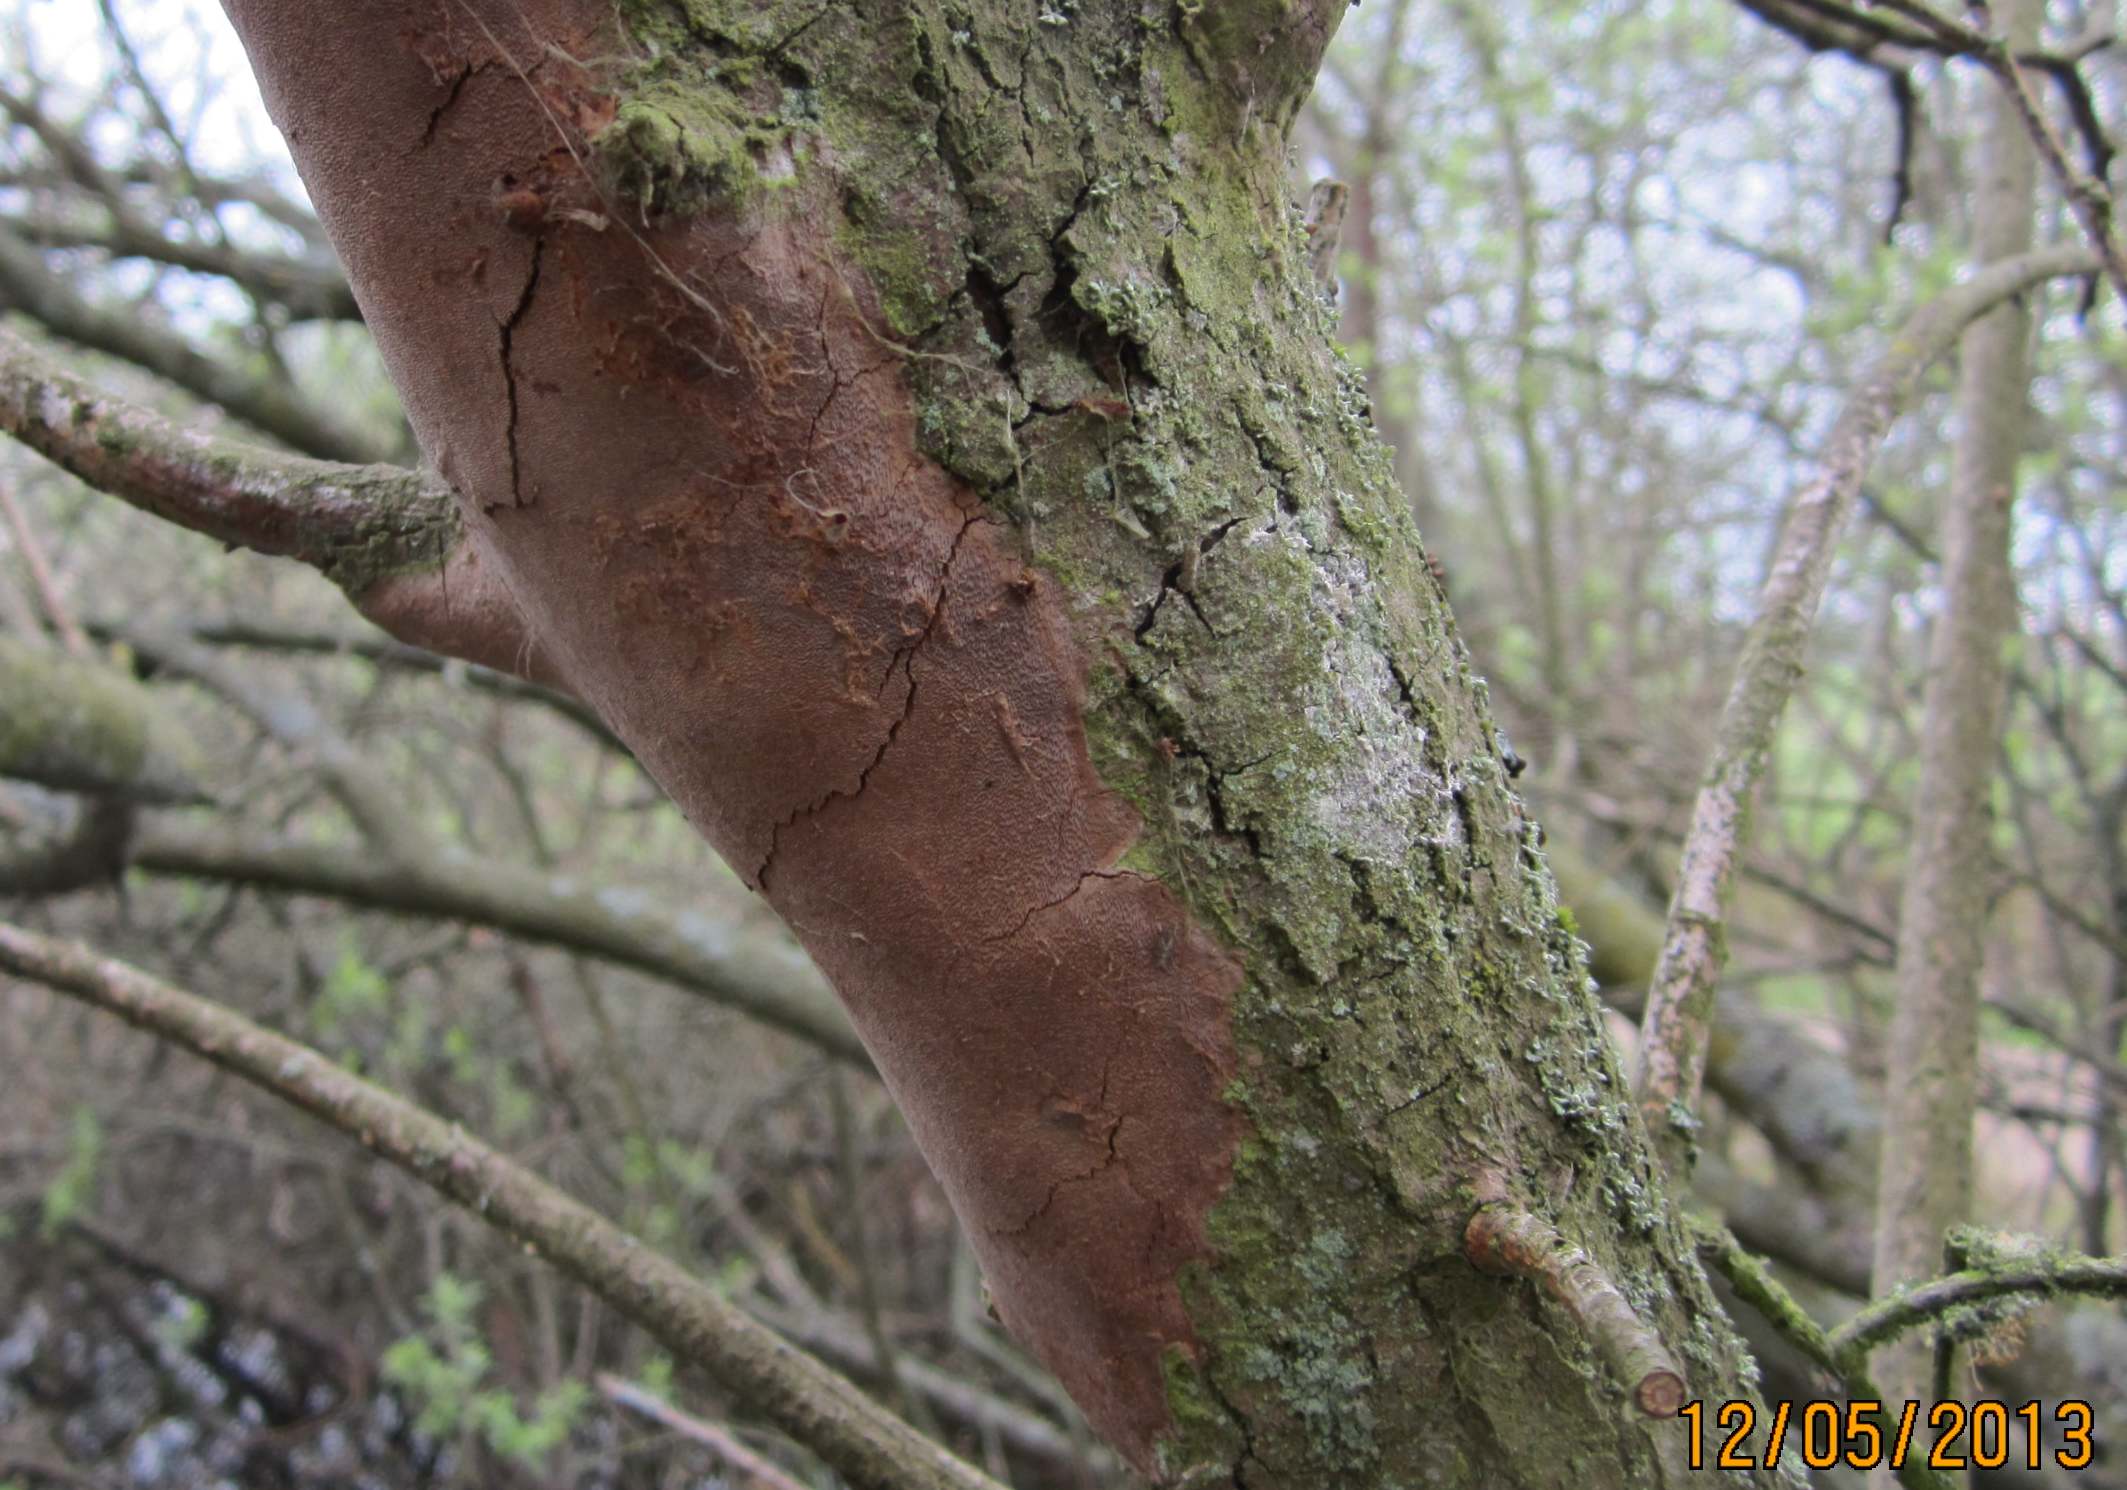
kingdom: Fungi
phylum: Basidiomycota
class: Agaricomycetes
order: Hymenochaetales
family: Hymenochaetaceae
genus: Fomitiporia
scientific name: Fomitiporia punctata
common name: pude-ildporesvamp
